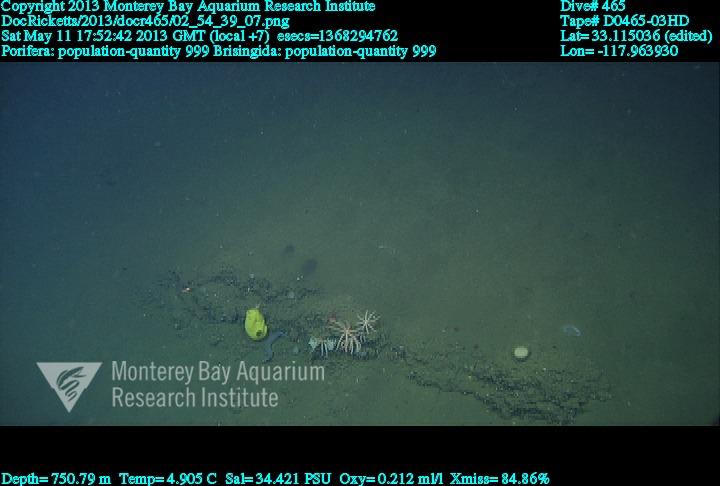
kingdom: Animalia
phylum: Porifera
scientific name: Porifera
